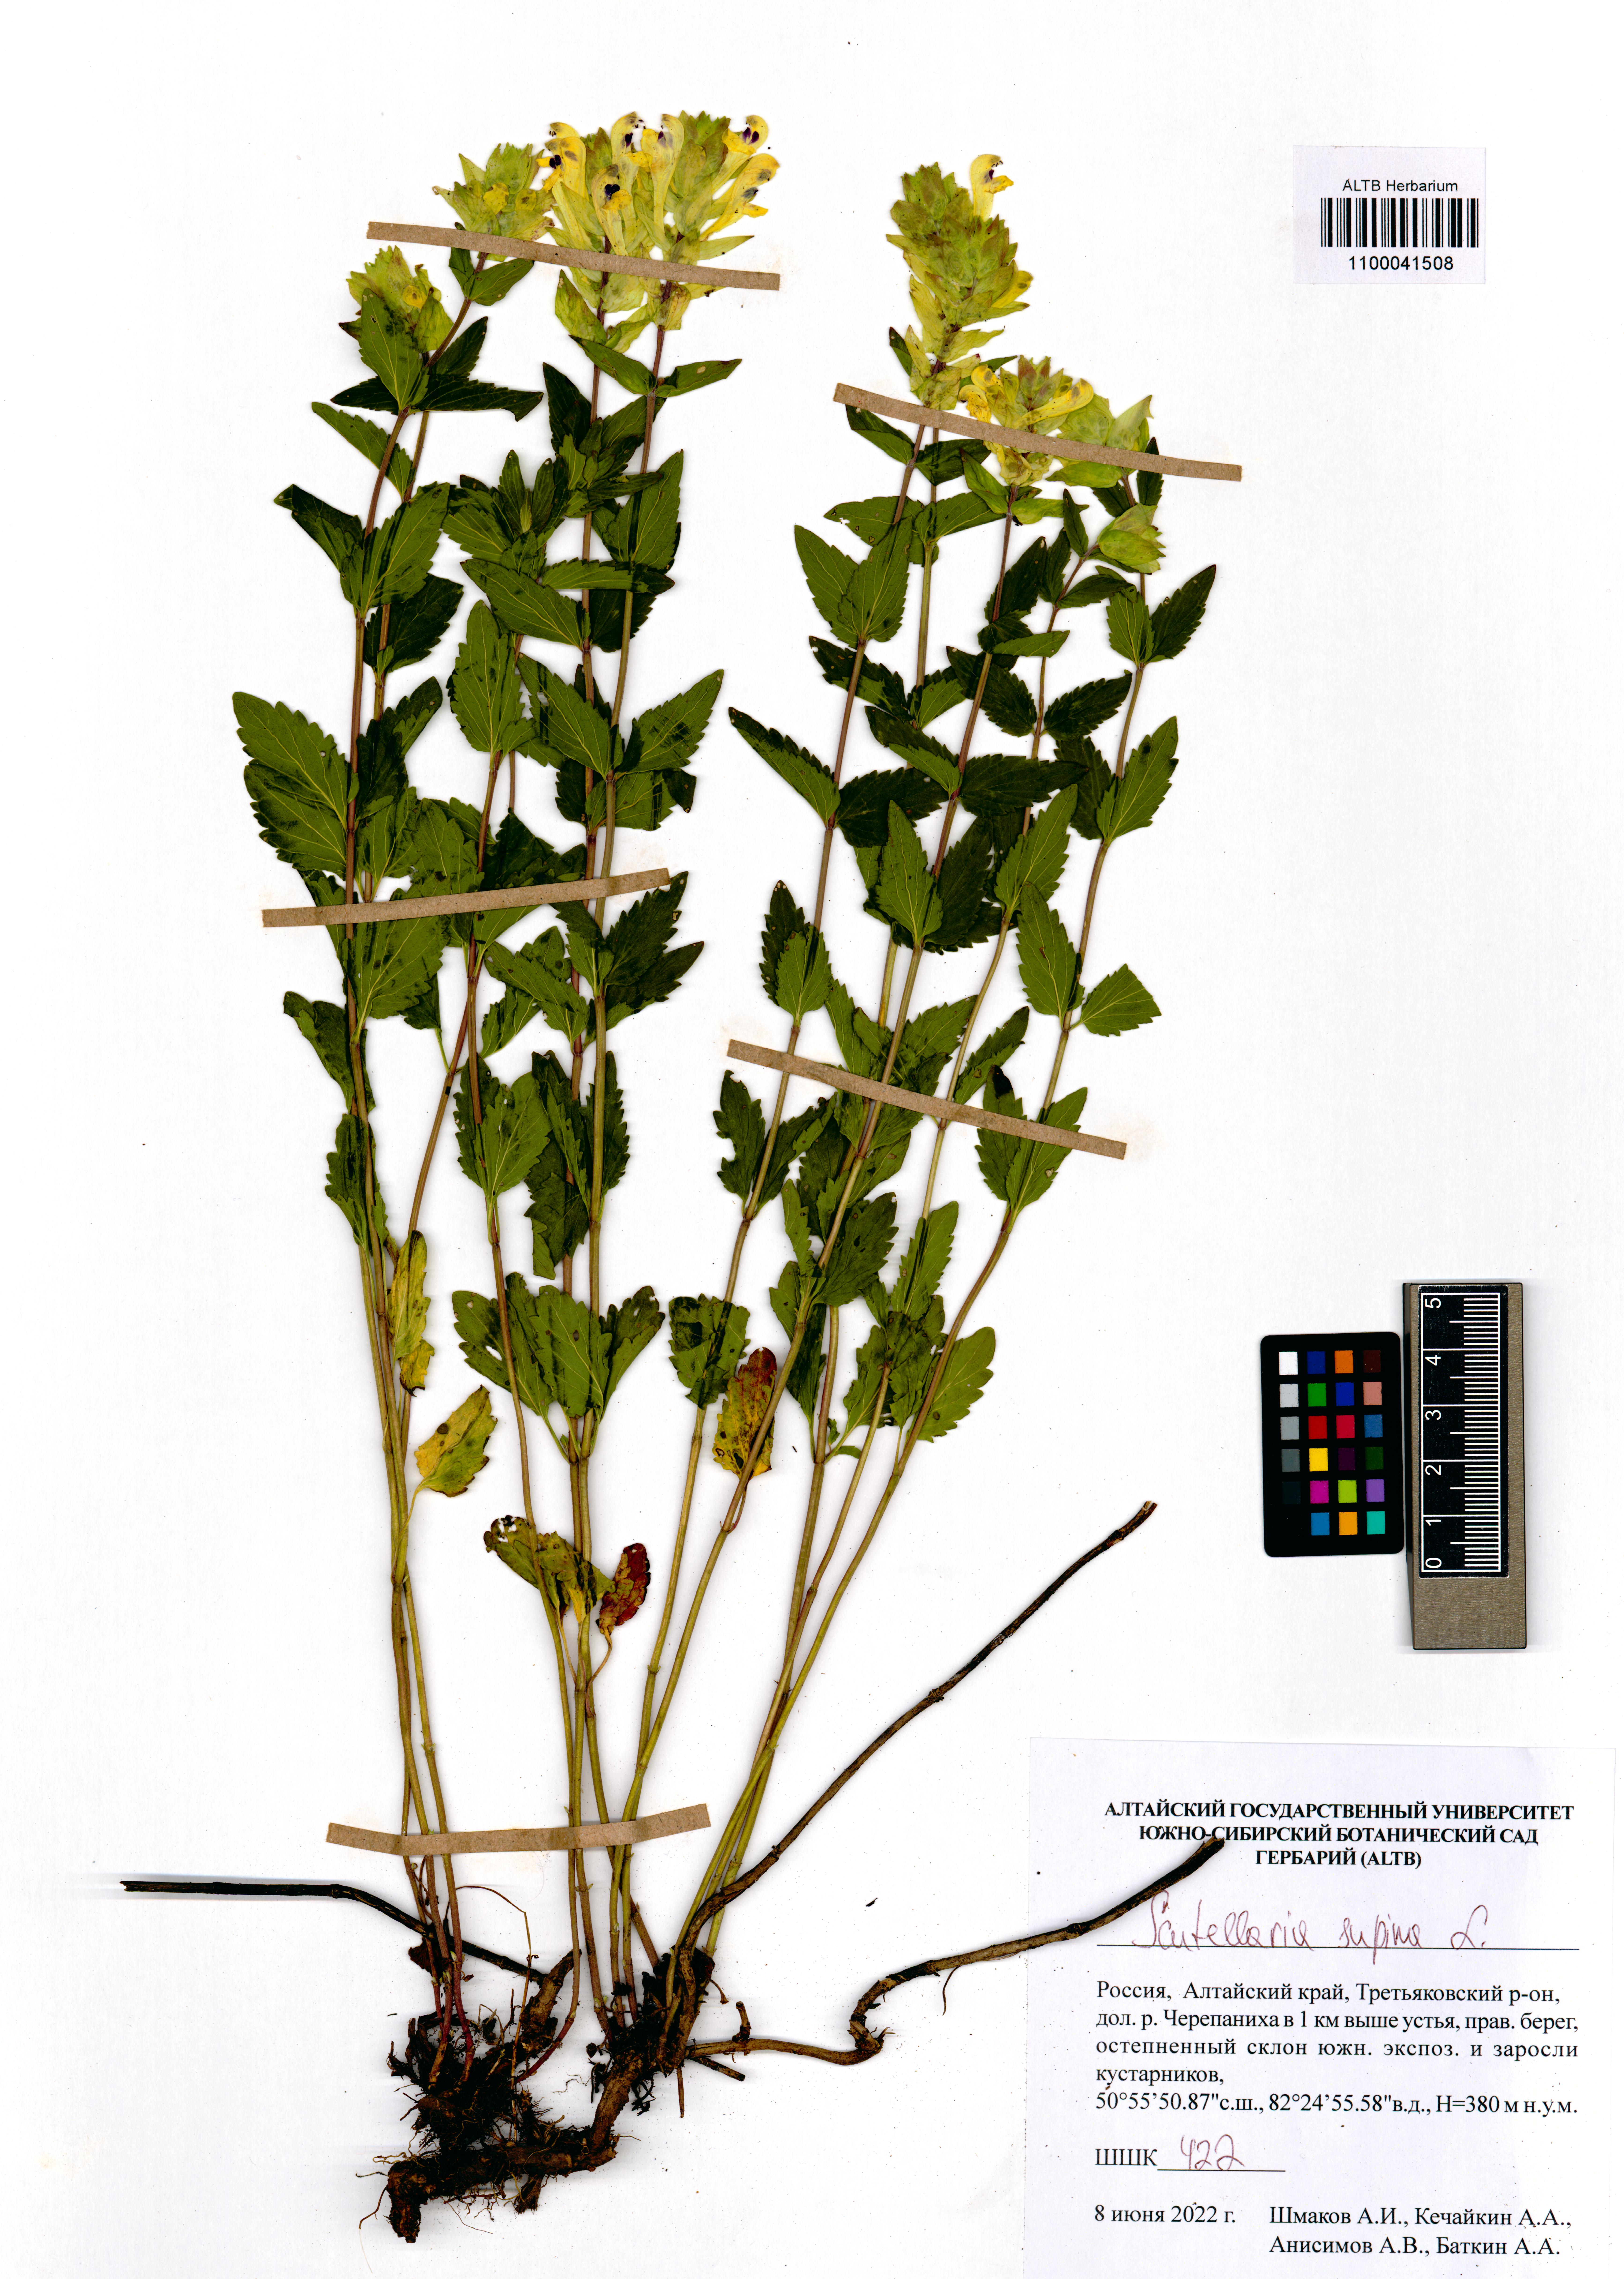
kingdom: Plantae
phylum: Tracheophyta
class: Magnoliopsida
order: Lamiales
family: Lamiaceae
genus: Scutellaria
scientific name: Scutellaria supina
